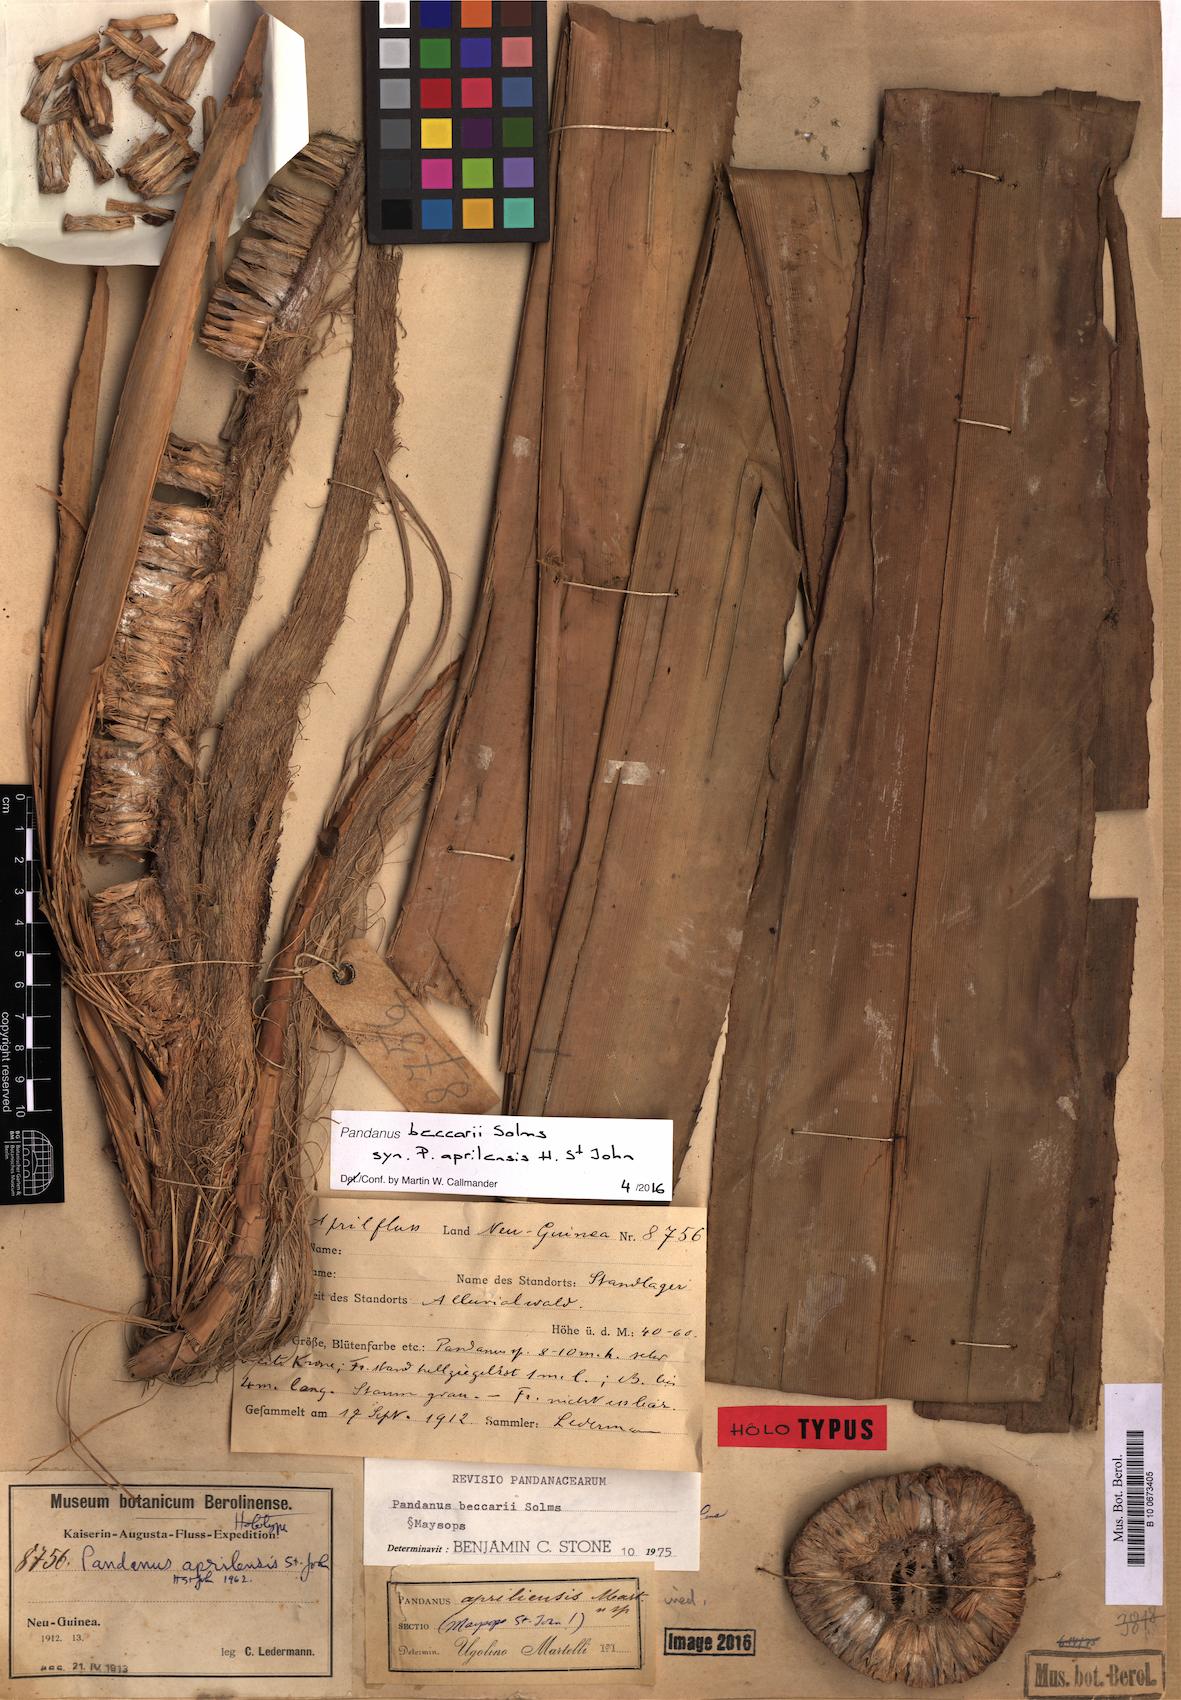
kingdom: Plantae
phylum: Tracheophyta
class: Liliopsida
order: Pandanales
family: Pandanaceae
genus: Pandanus
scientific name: Pandanus beccarii
